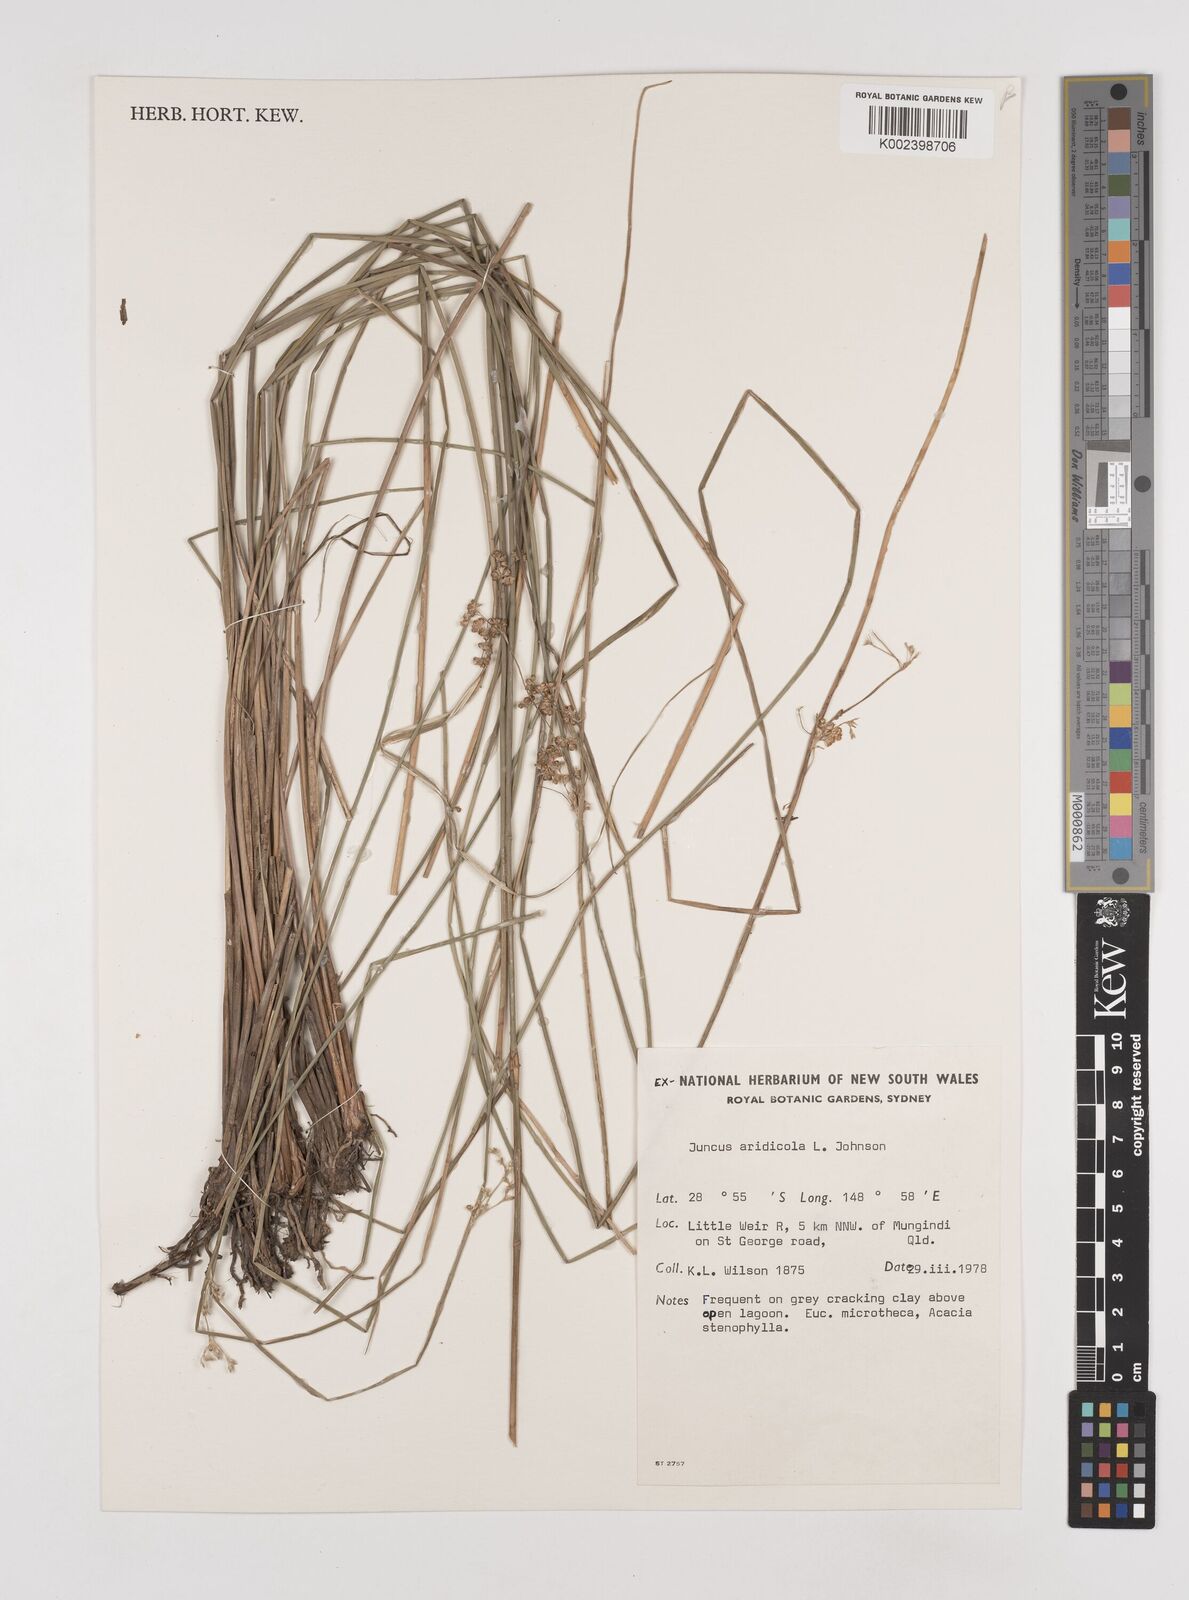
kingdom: Plantae
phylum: Tracheophyta
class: Liliopsida
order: Poales
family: Juncaceae
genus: Juncus
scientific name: Juncus aridicola
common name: Tussock rush
